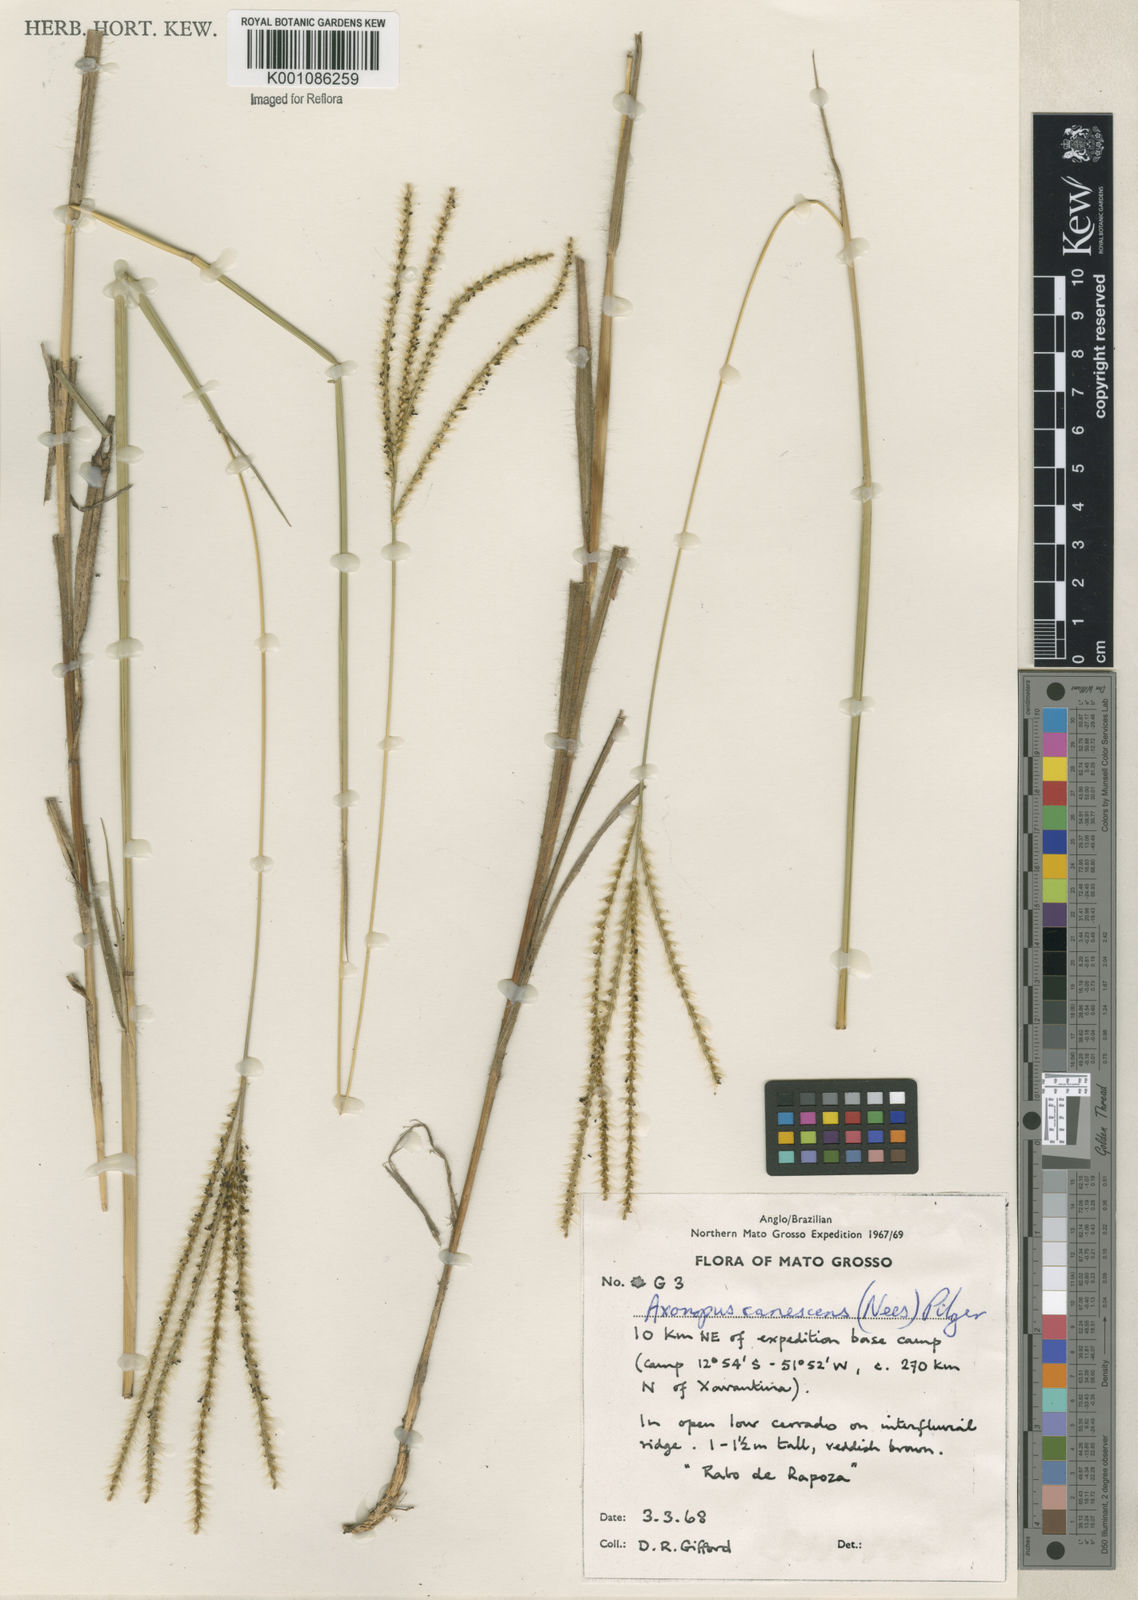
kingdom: Plantae
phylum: Tracheophyta
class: Liliopsida
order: Poales
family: Poaceae
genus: Axonopus
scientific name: Axonopus aureus
